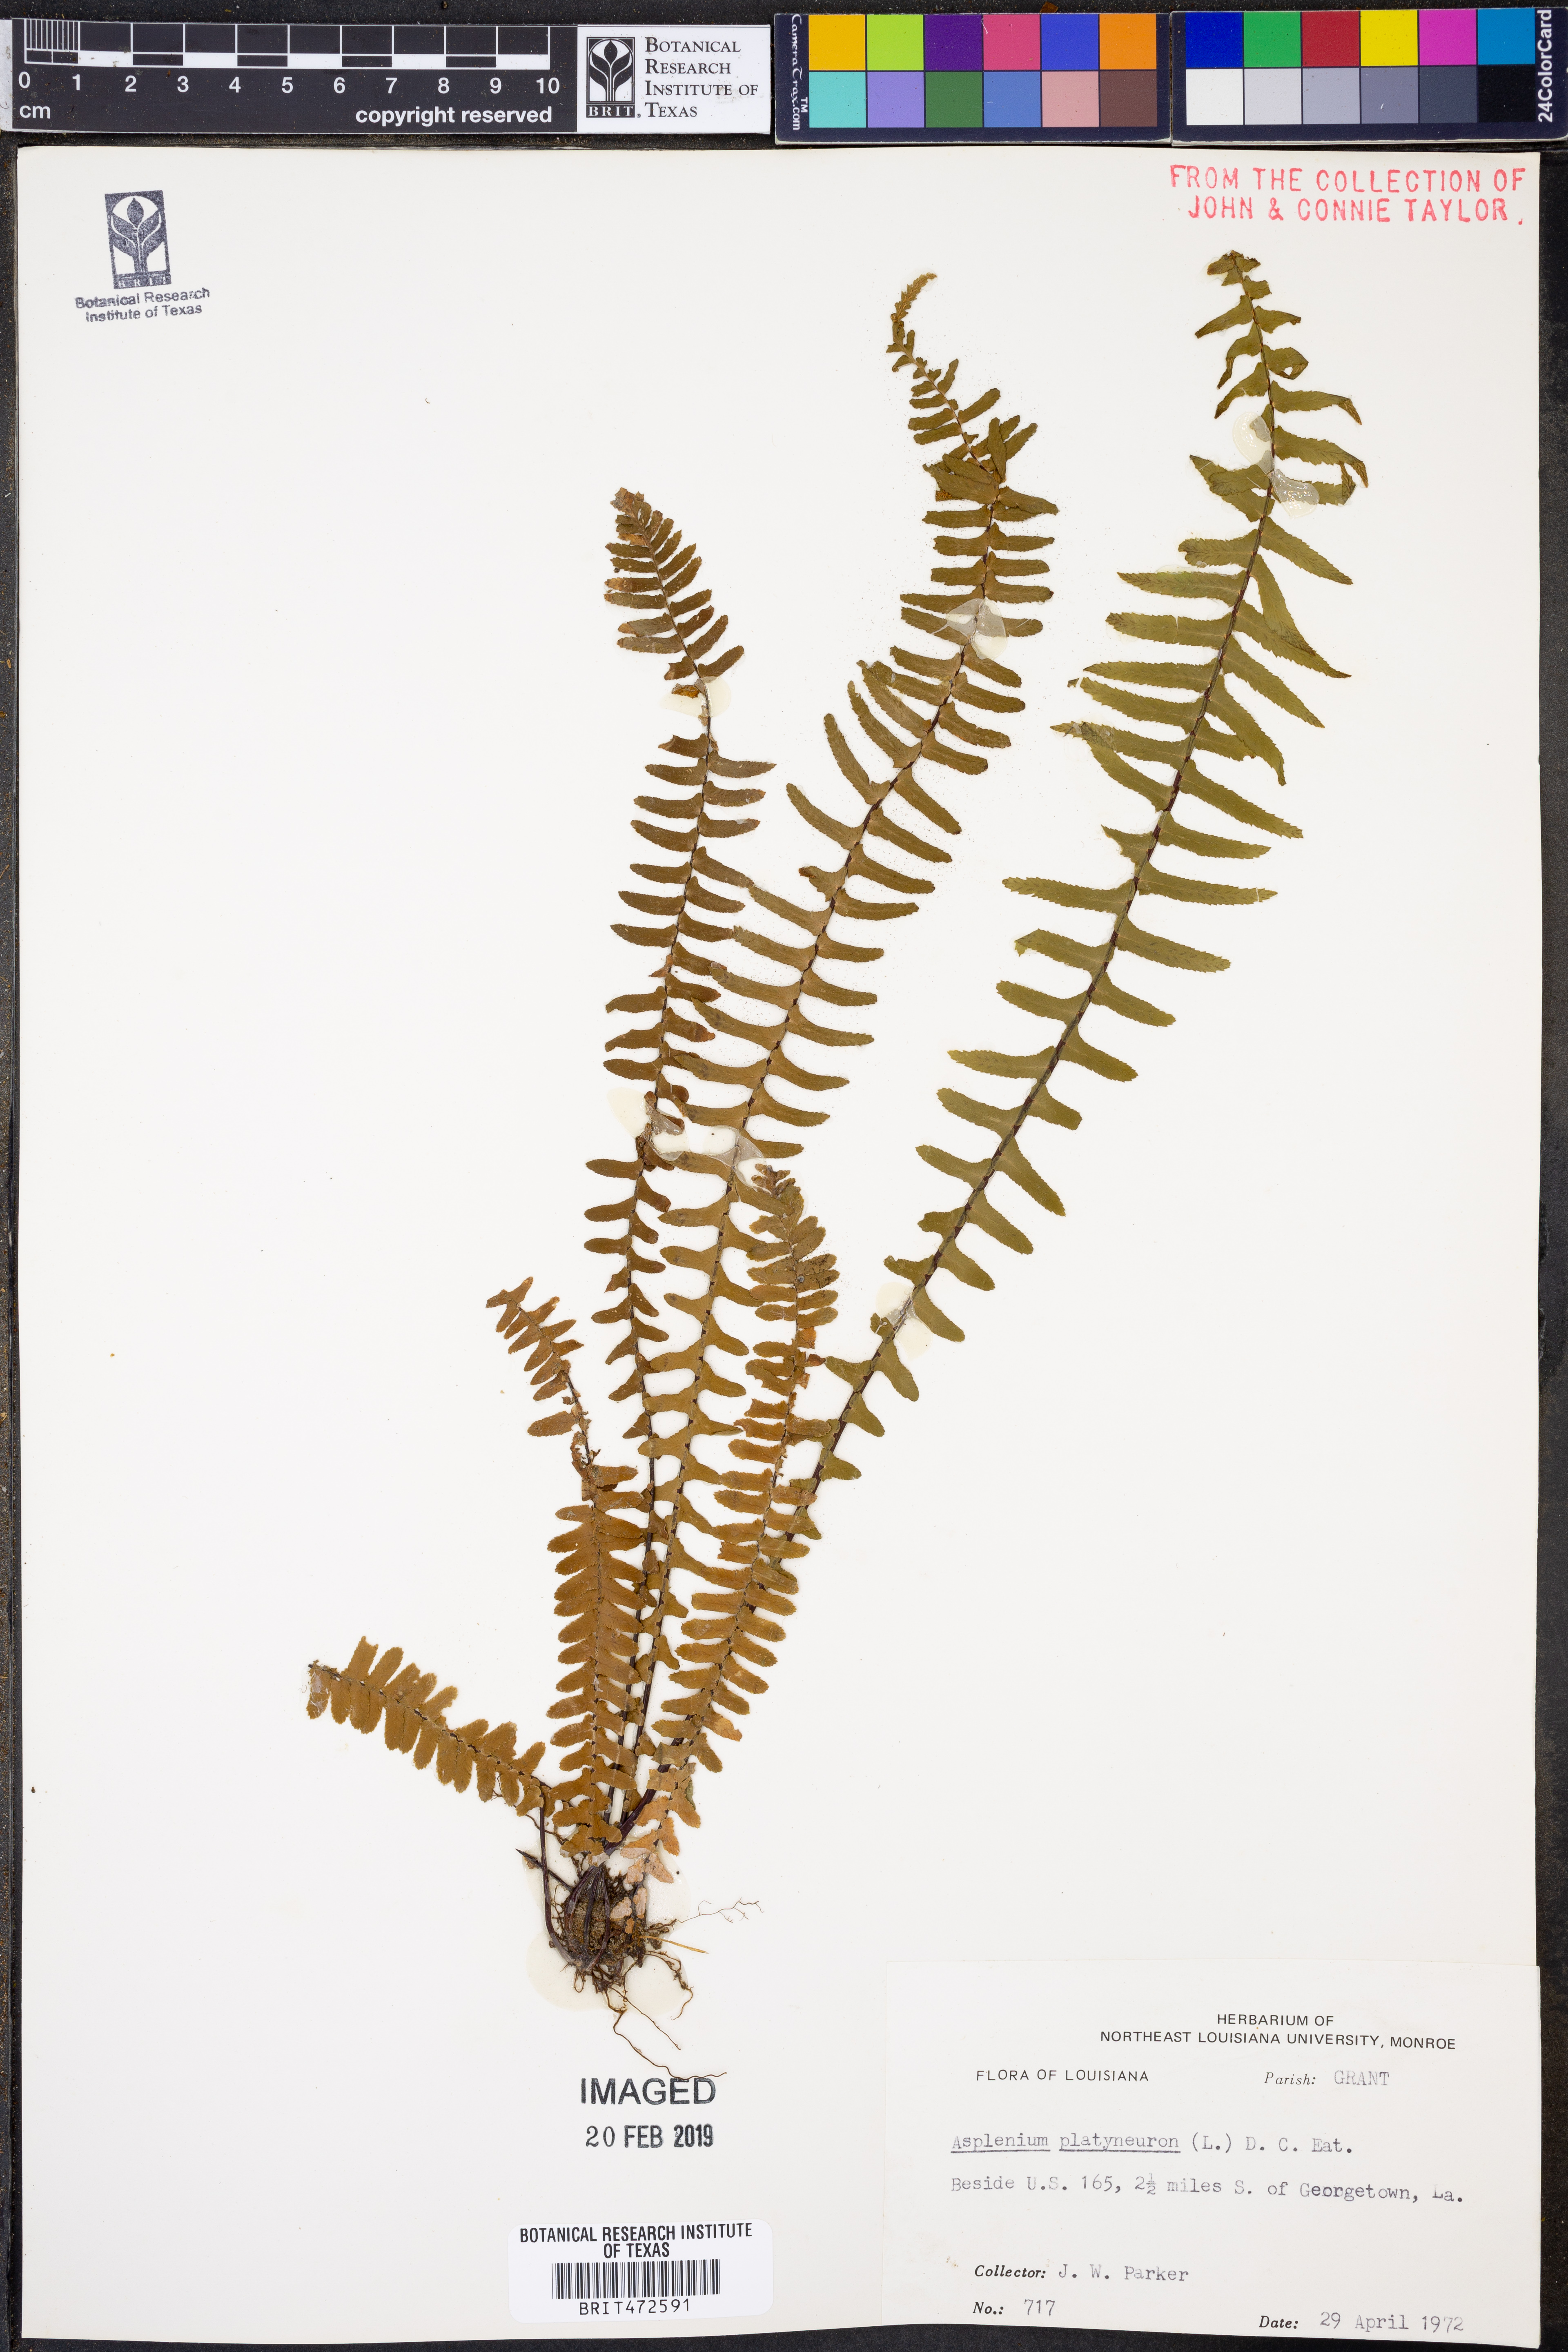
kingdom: Plantae
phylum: Tracheophyta
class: Polypodiopsida
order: Polypodiales
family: Aspleniaceae
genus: Asplenium
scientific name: Asplenium platyneuron
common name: Ebony spleenwort
